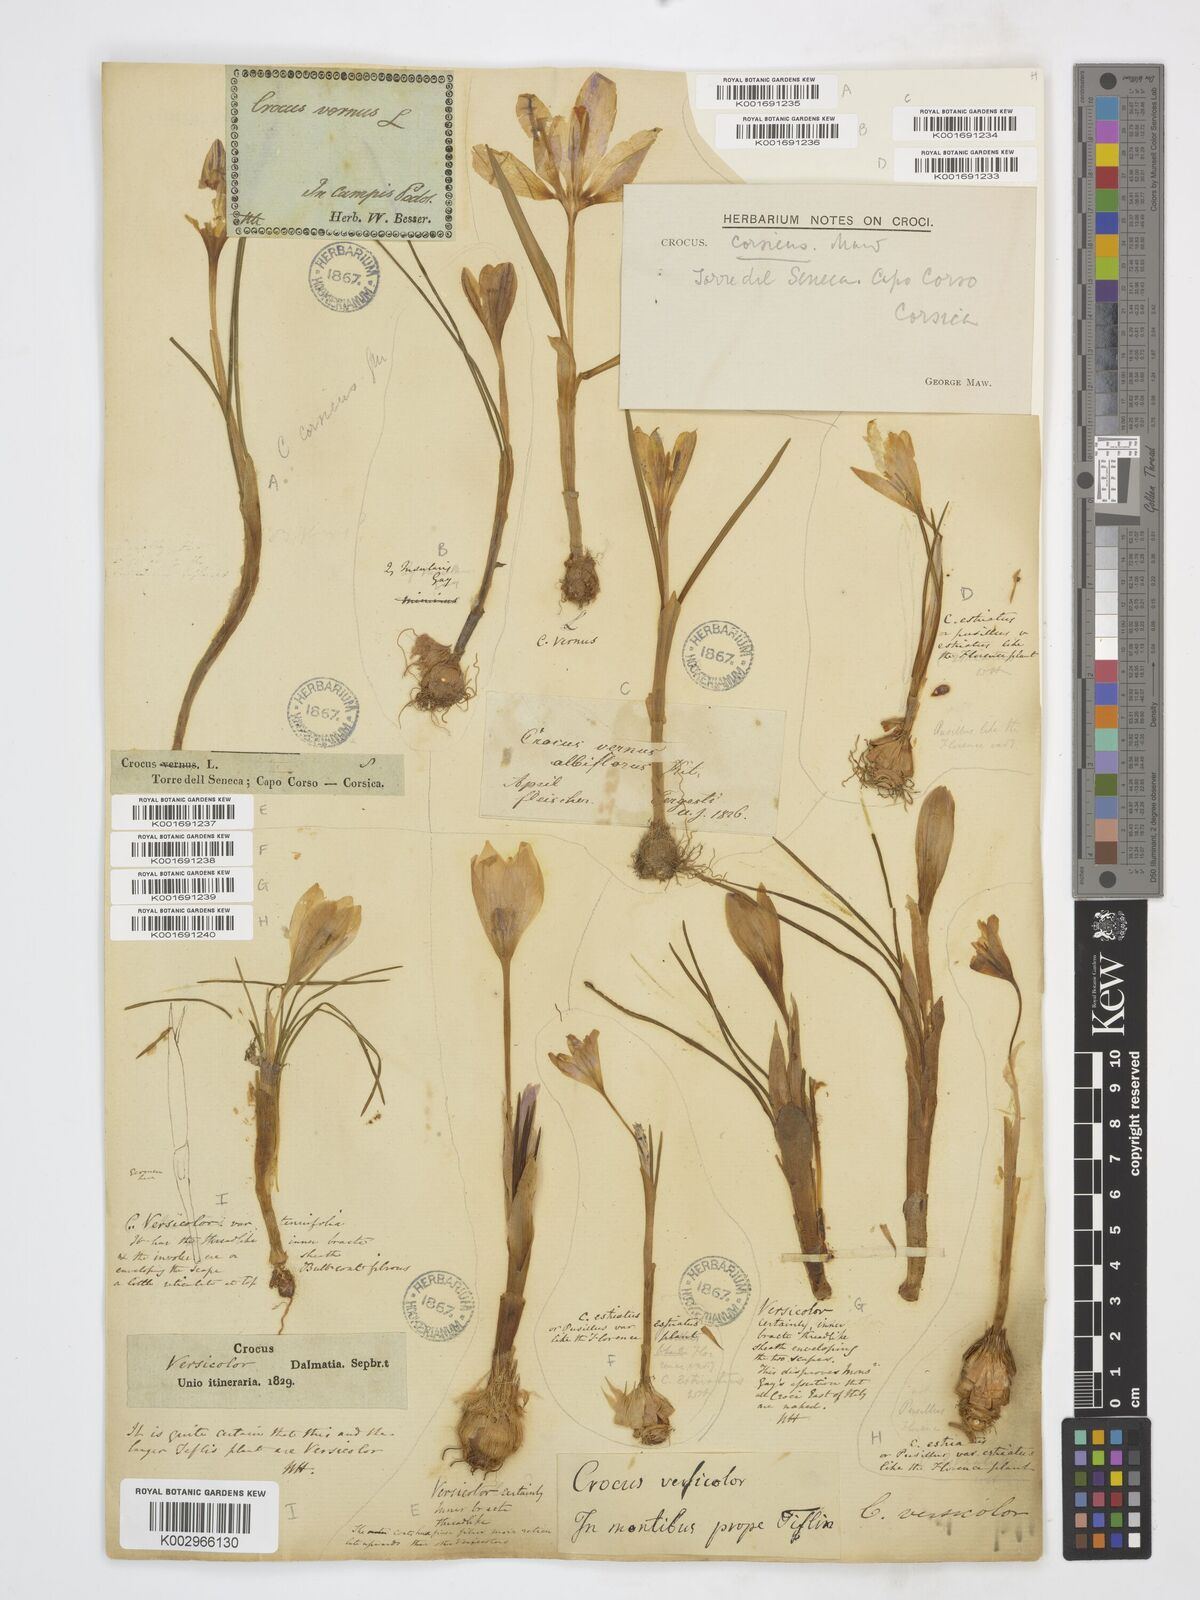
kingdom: Plantae
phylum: Tracheophyta
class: Liliopsida
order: Asparagales
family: Iridaceae
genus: Crocus
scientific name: Crocus corsicus
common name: Corsican crocus
